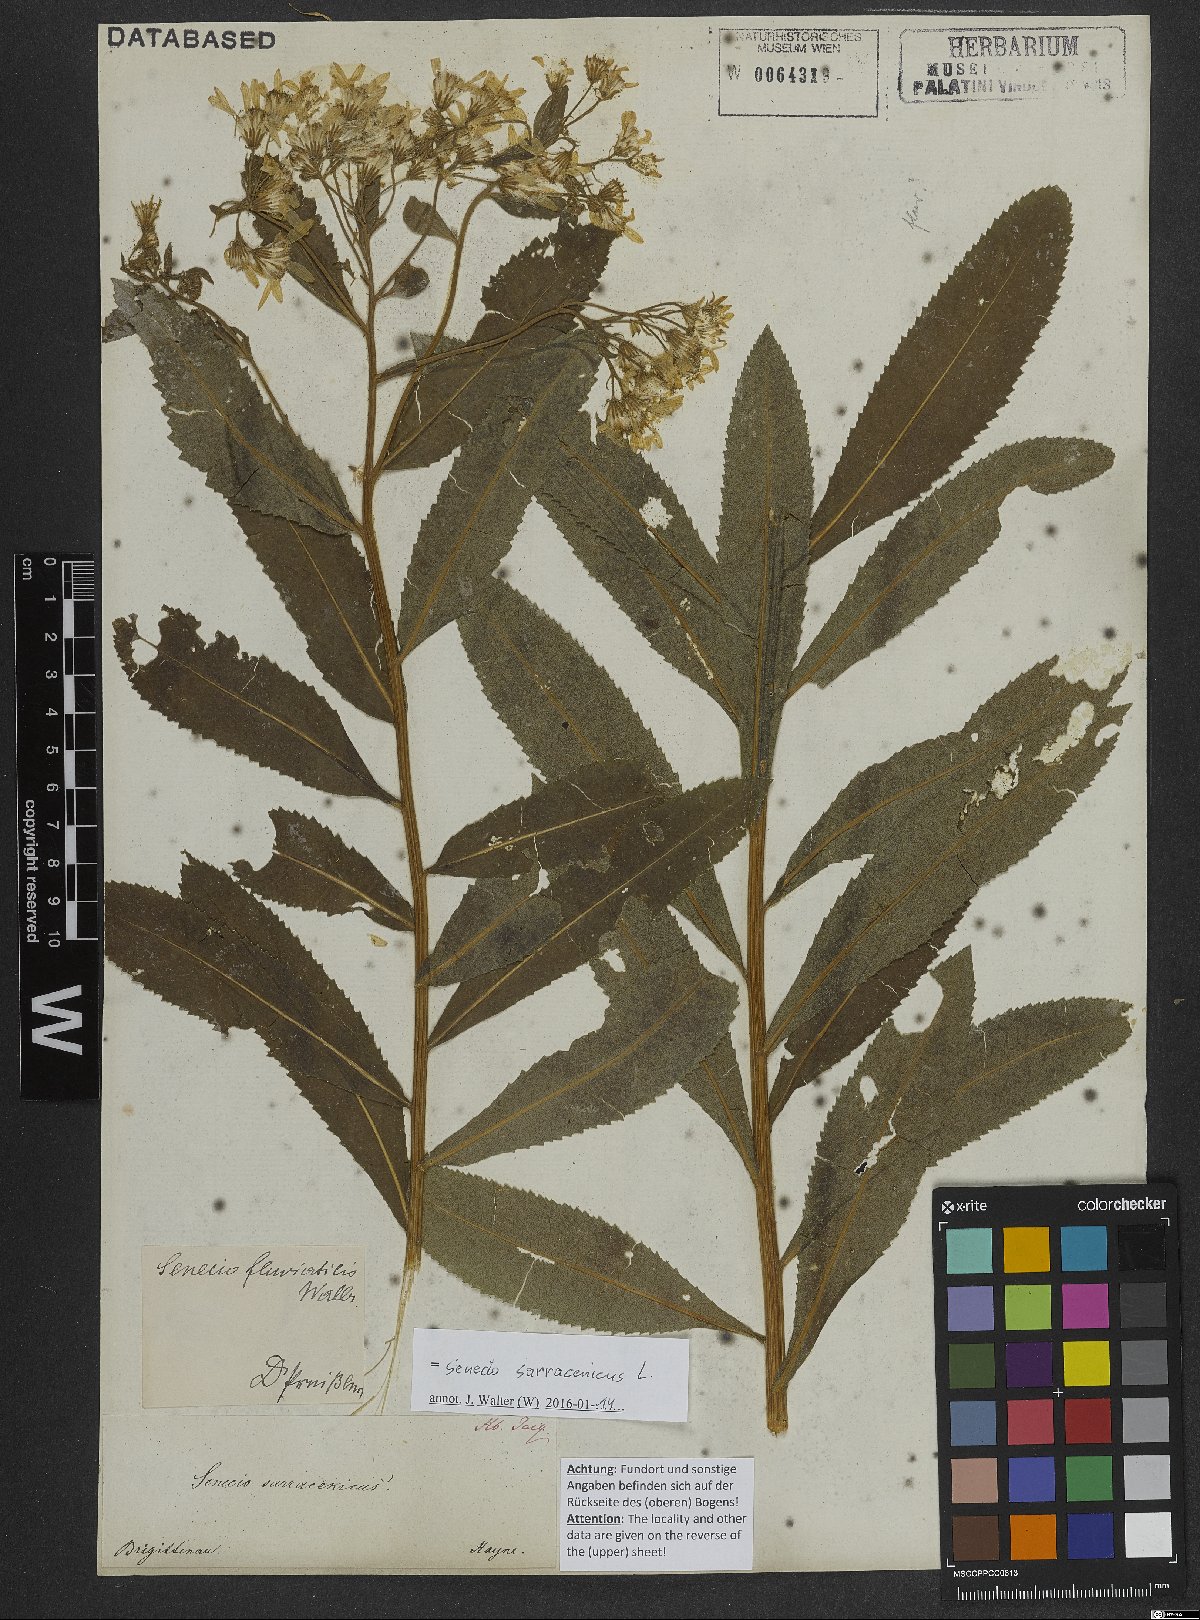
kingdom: Plantae
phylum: Tracheophyta
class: Magnoliopsida
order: Asterales
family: Asteraceae
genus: Senecio
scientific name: Senecio sarracenicus
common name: Broad-leaved ragwort
